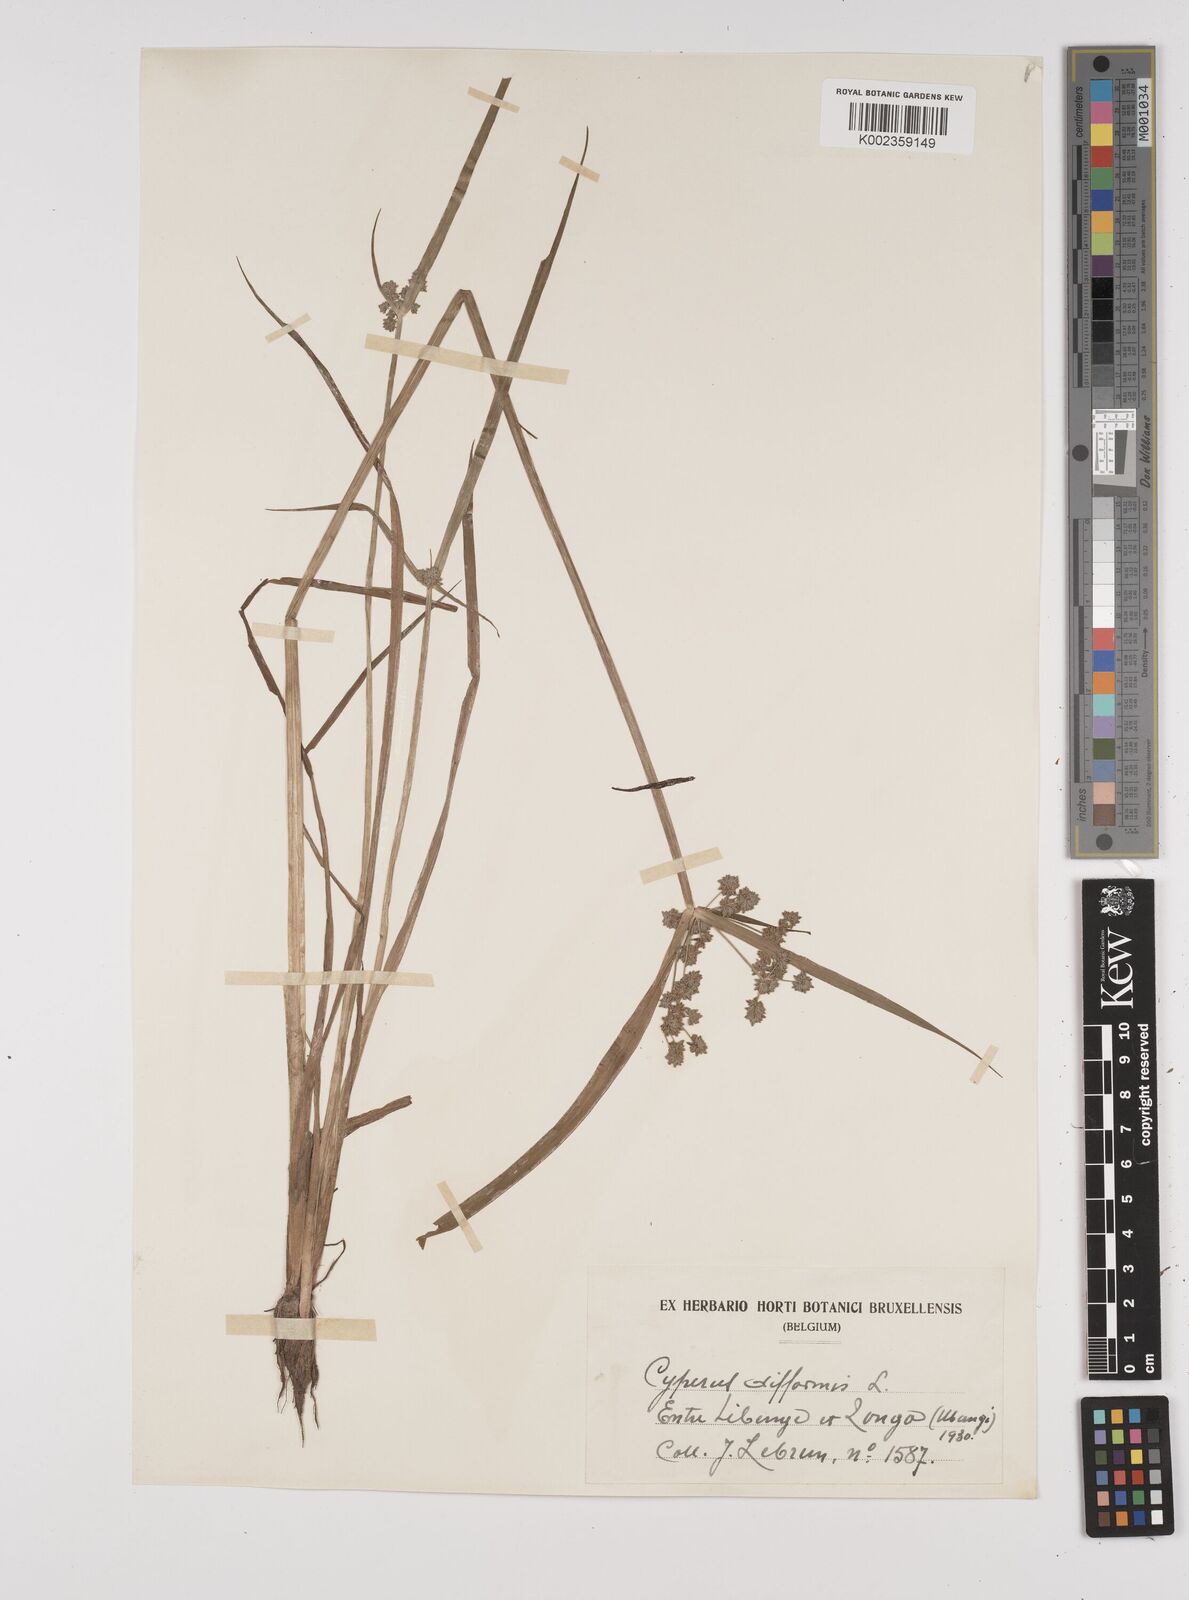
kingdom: Plantae
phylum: Tracheophyta
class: Liliopsida
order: Poales
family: Cyperaceae
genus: Cyperus
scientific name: Cyperus difformis
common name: Variable flatsedge
